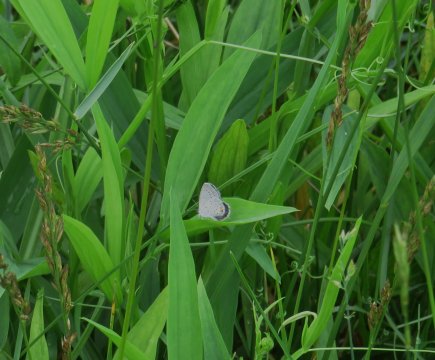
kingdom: Animalia
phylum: Arthropoda
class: Insecta
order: Lepidoptera
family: Lycaenidae
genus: Elkalyce
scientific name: Elkalyce comyntas
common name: Eastern Tailed-Blue
